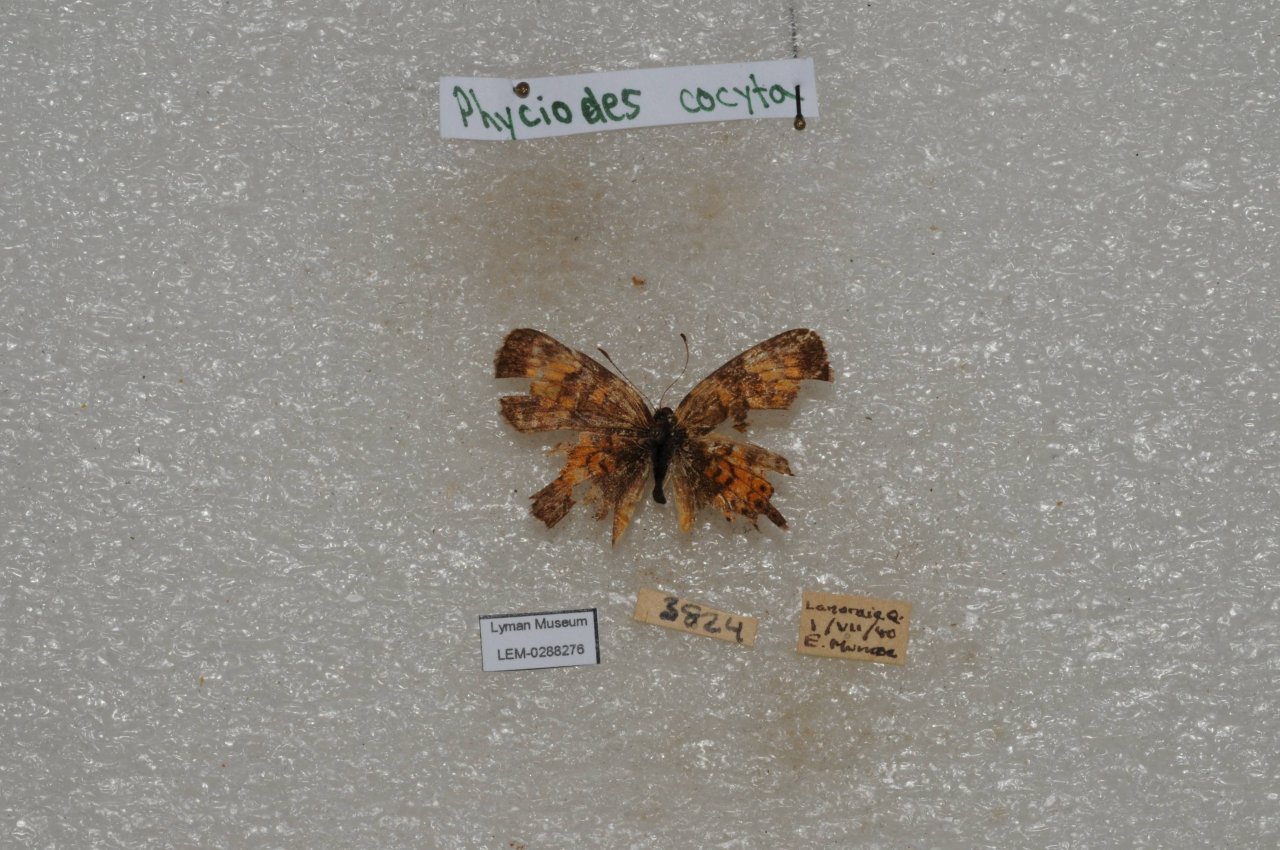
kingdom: Animalia
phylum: Arthropoda
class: Insecta
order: Lepidoptera
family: Nymphalidae
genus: Phyciodes
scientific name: Phyciodes tharos
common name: Northern Crescent
